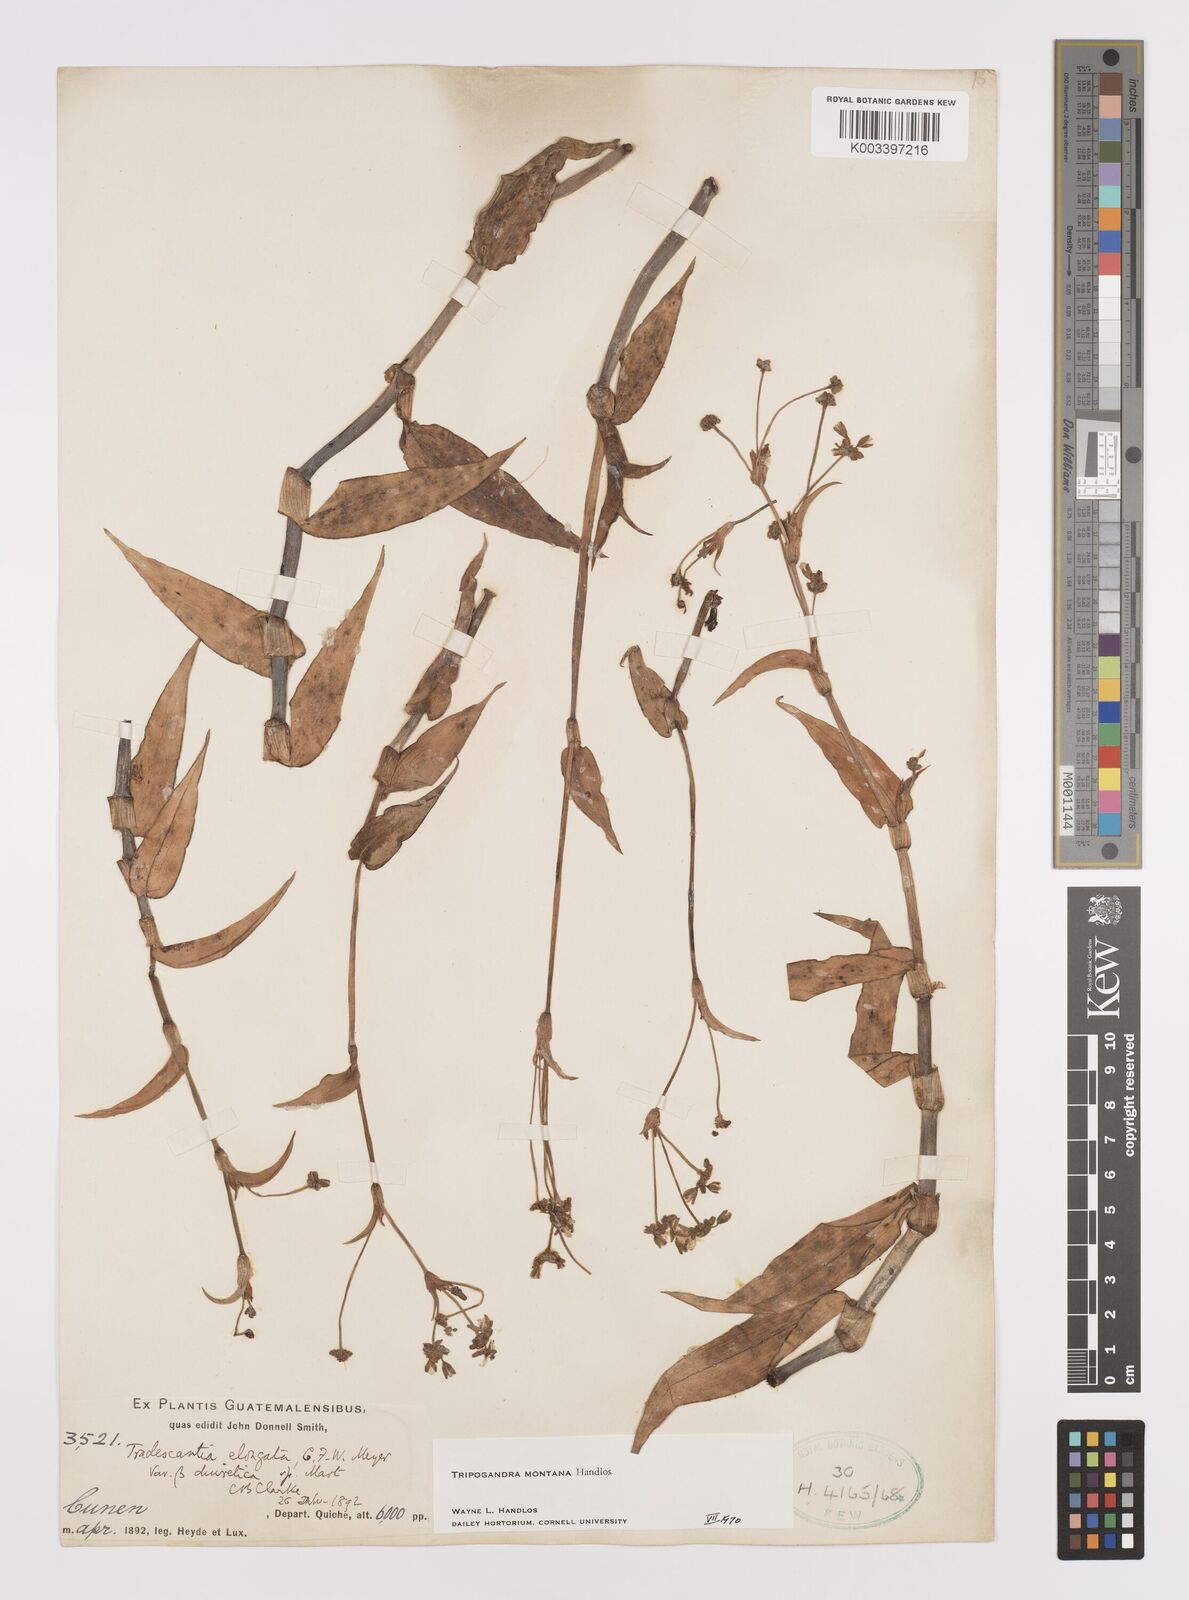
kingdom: Plantae
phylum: Tracheophyta
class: Liliopsida
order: Commelinales
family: Commelinaceae
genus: Callisia
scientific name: Callisia diuretica
